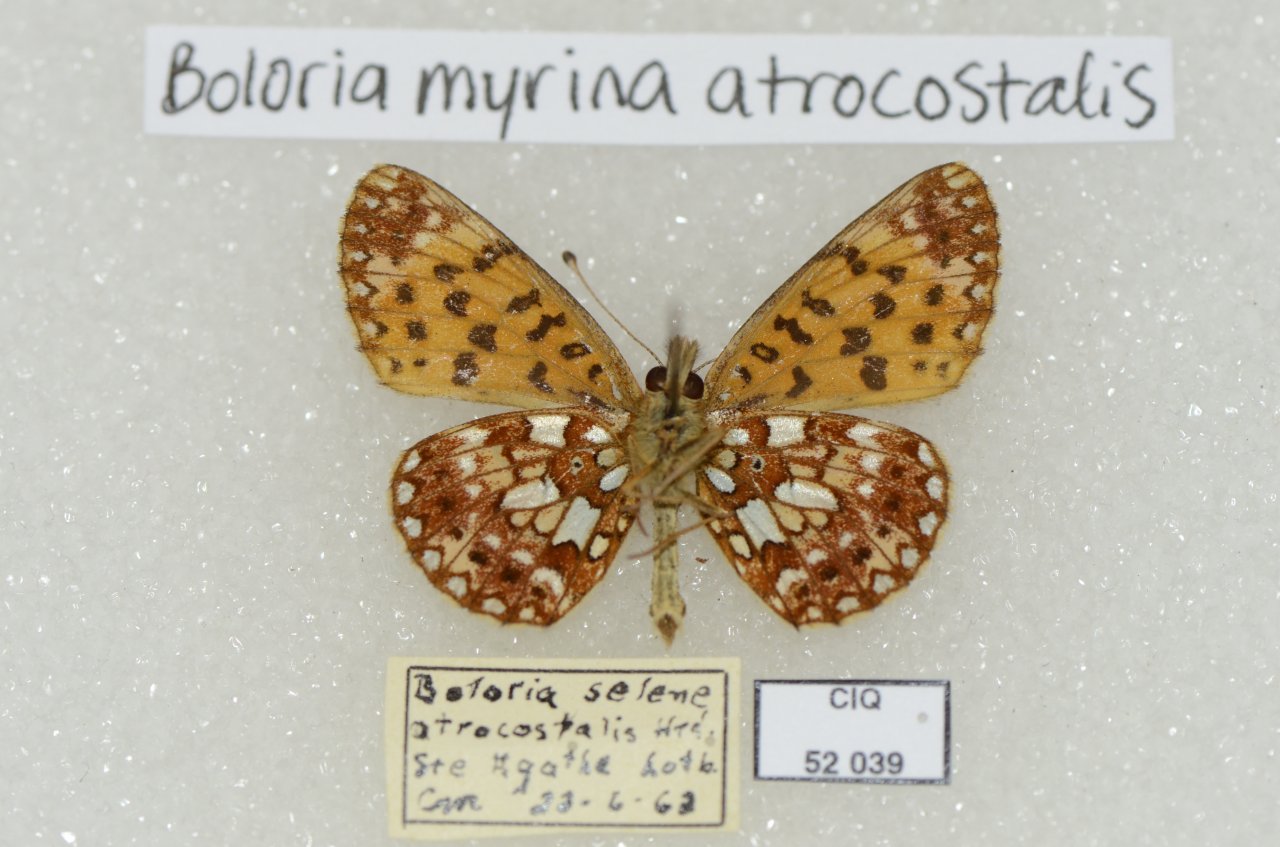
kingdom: Animalia
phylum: Arthropoda
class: Insecta
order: Lepidoptera
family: Nymphalidae
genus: Boloria
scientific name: Boloria selene
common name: Silver-bordered Fritillary
